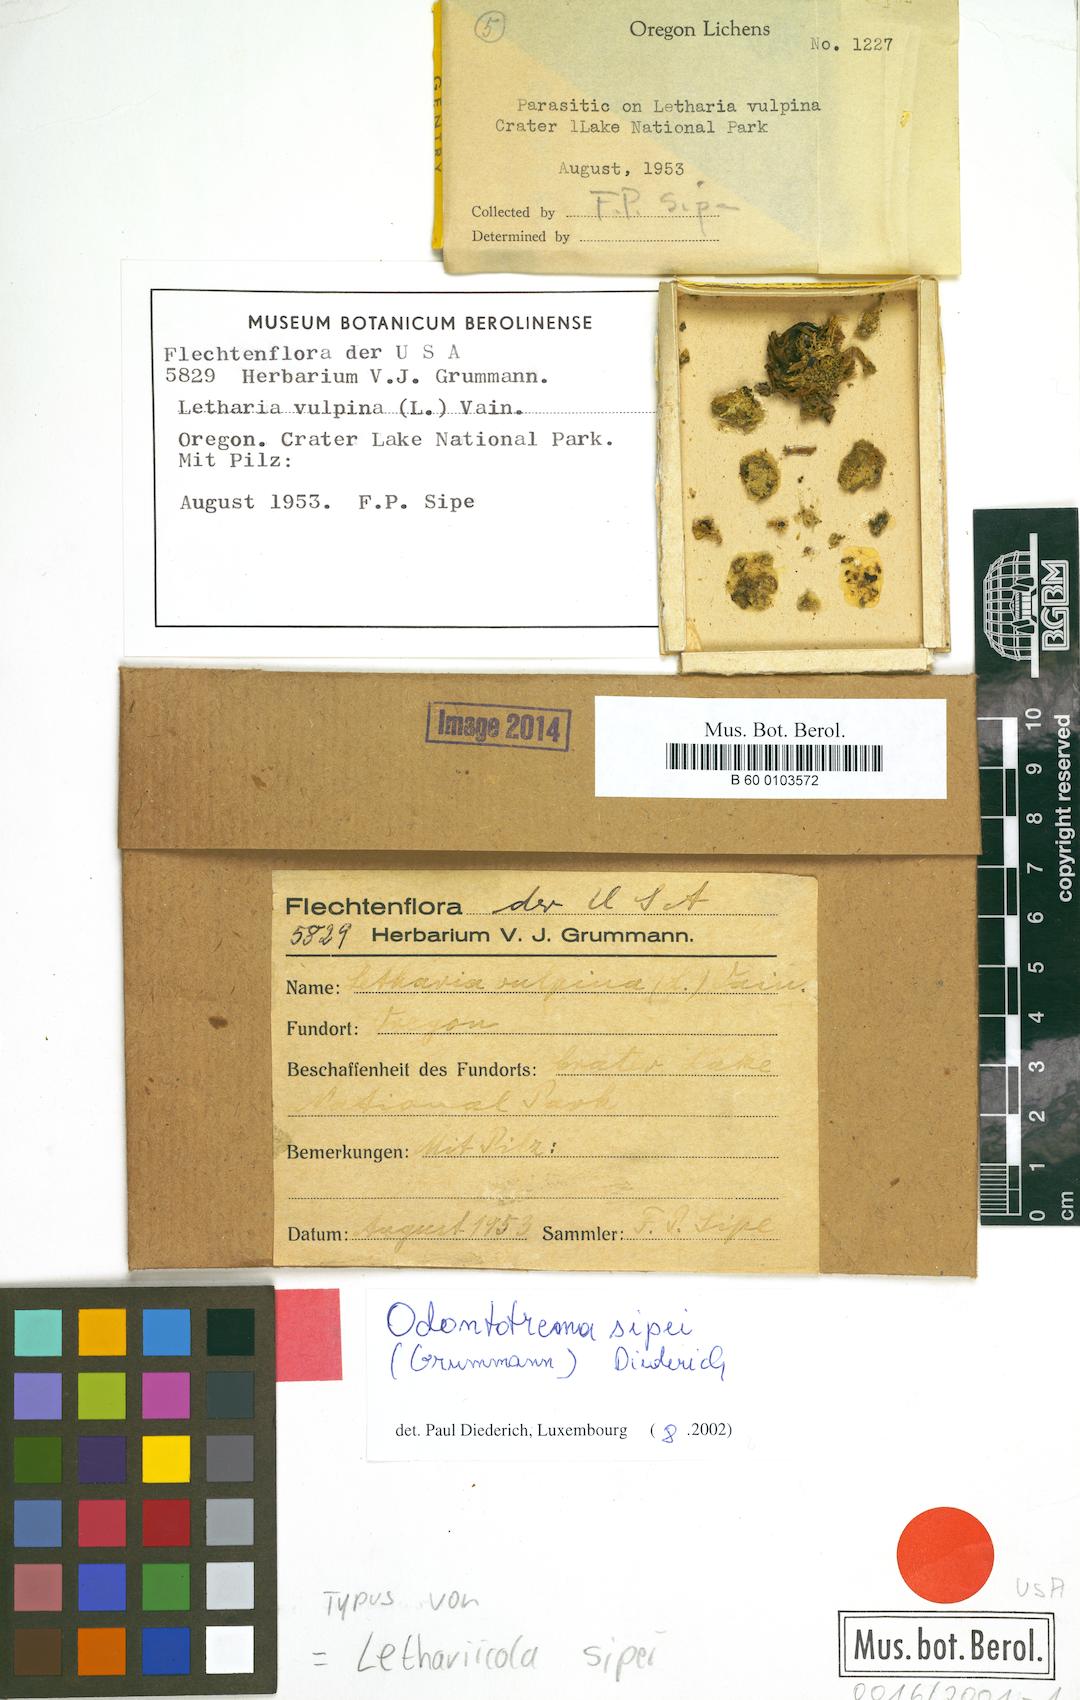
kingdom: Fungi
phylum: Ascomycota
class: Lecanoromycetes
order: Ostropales
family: Odontotremataceae
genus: Sphaeropezia
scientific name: Sphaeropezia sipei
